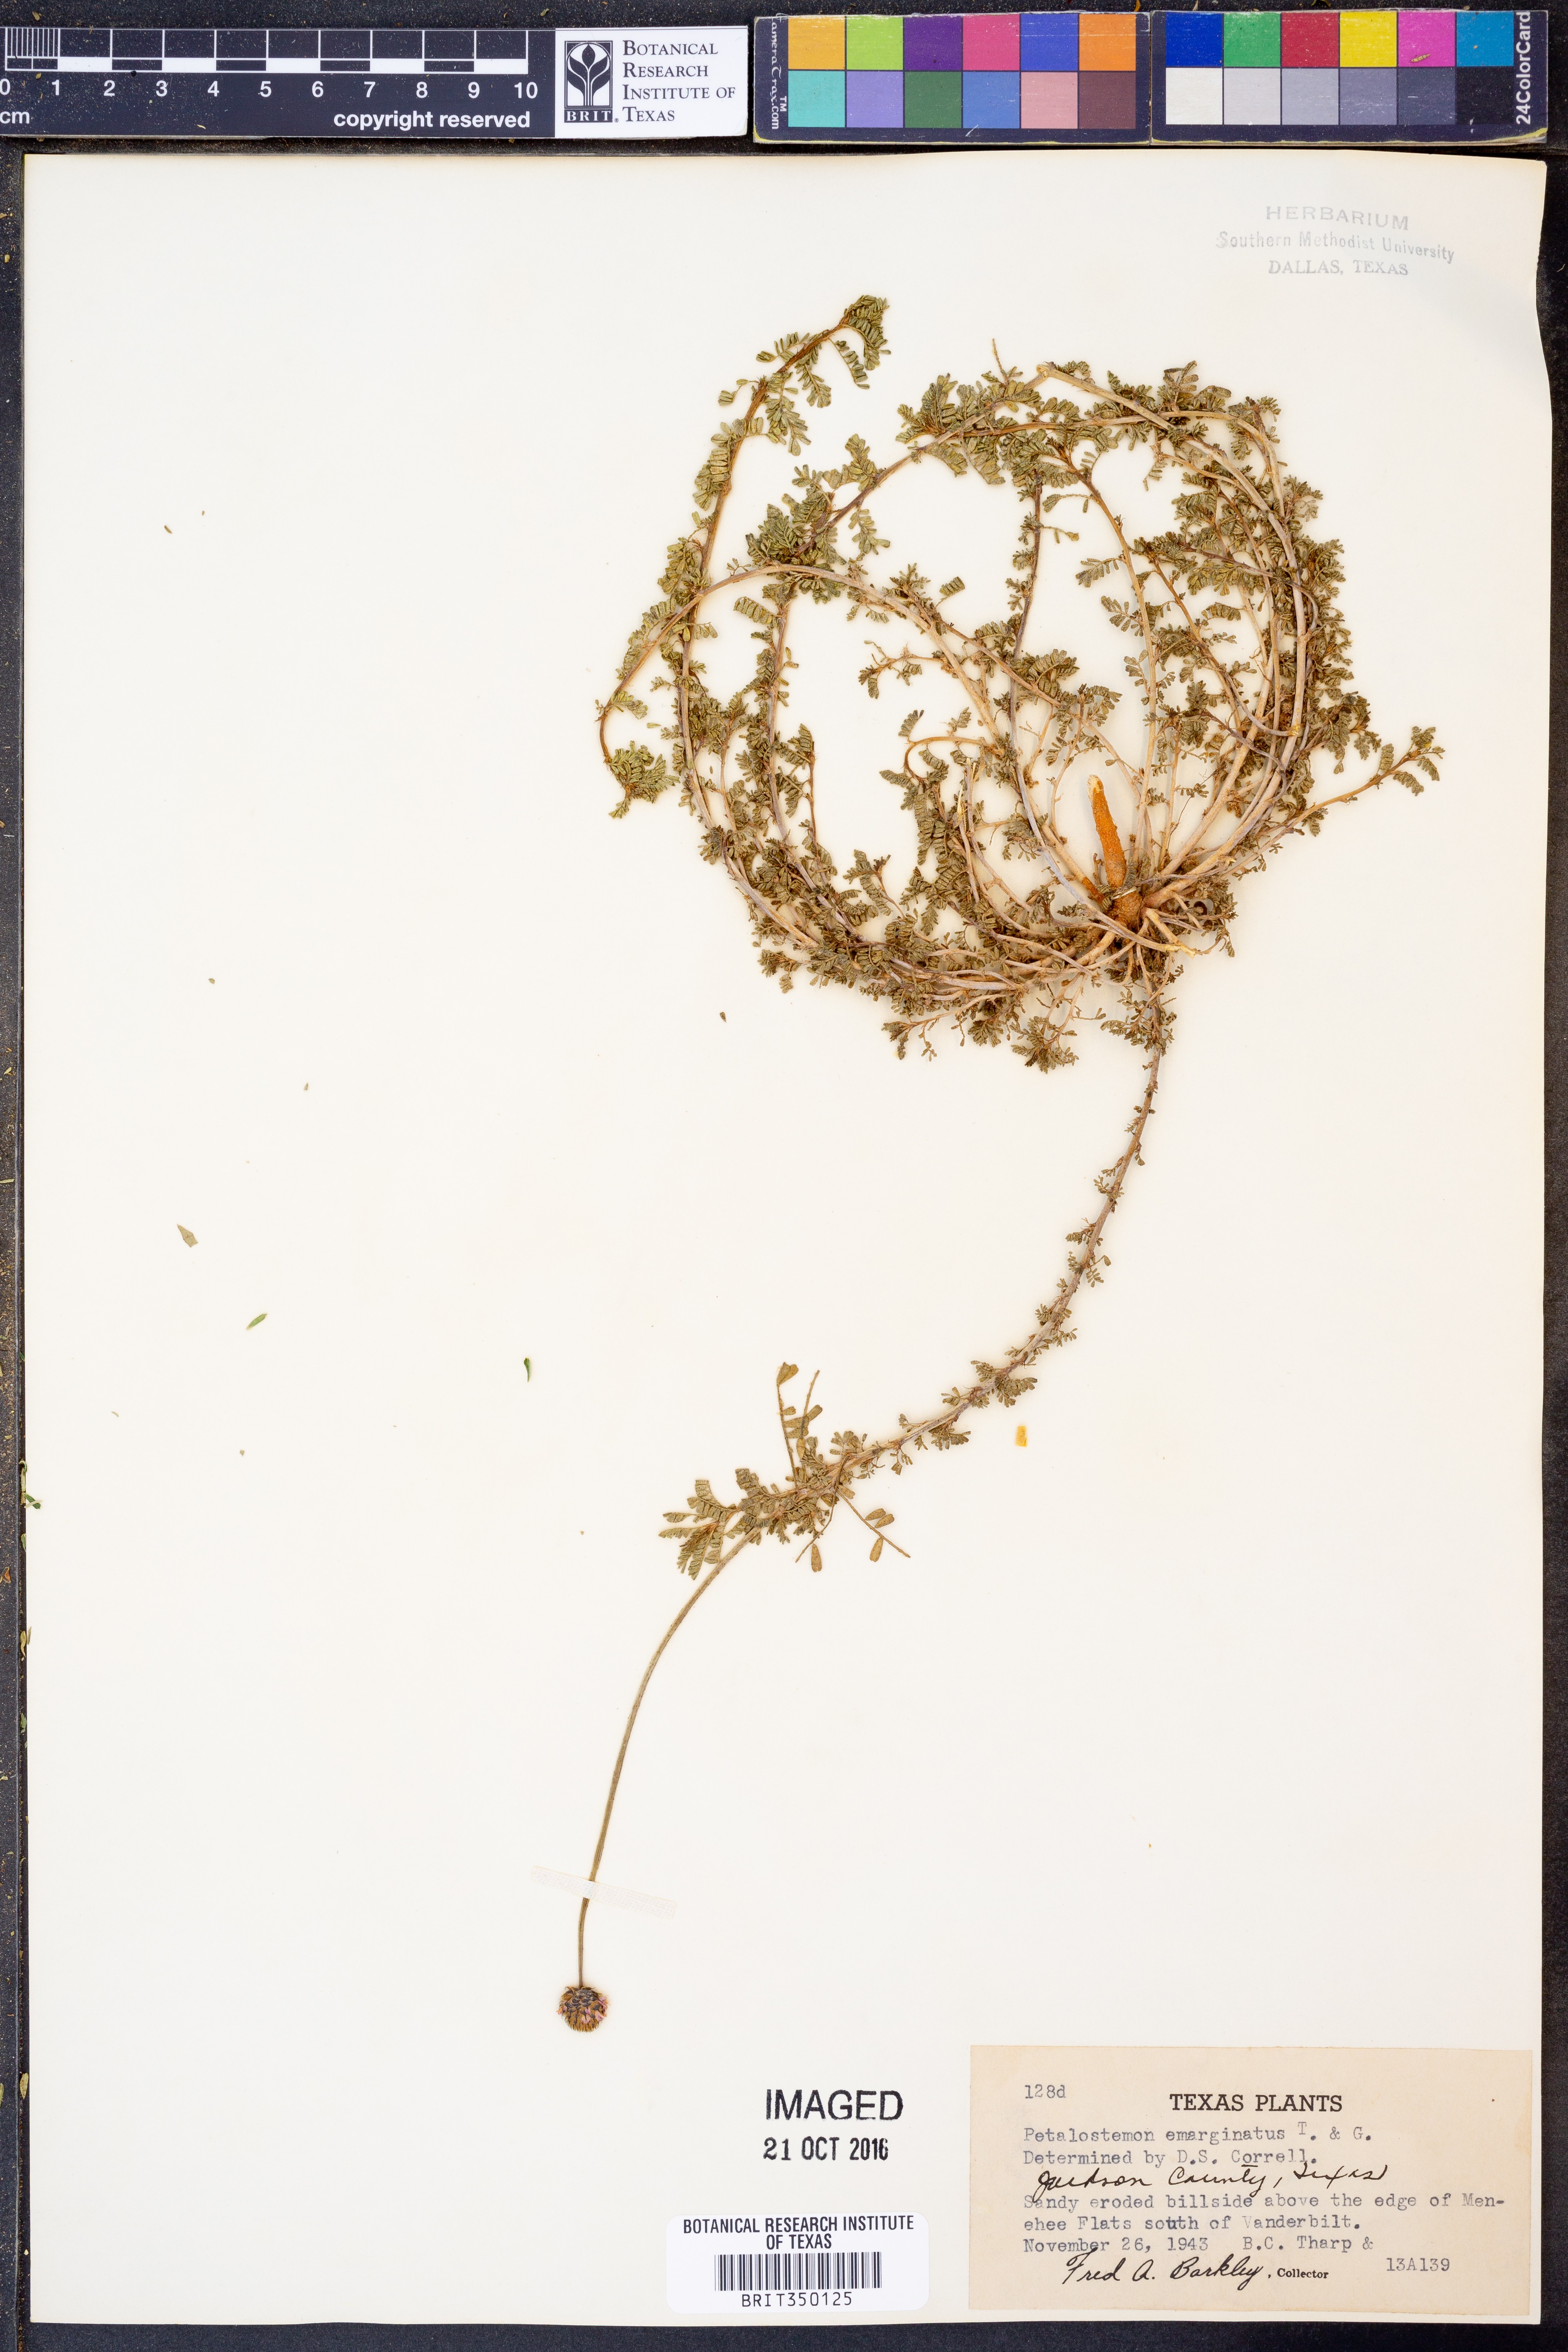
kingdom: Plantae
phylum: Tracheophyta
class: Magnoliopsida
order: Fabales
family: Fabaceae
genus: Dalea
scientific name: Dalea emarginata
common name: Wedgeleaf prairie clover
